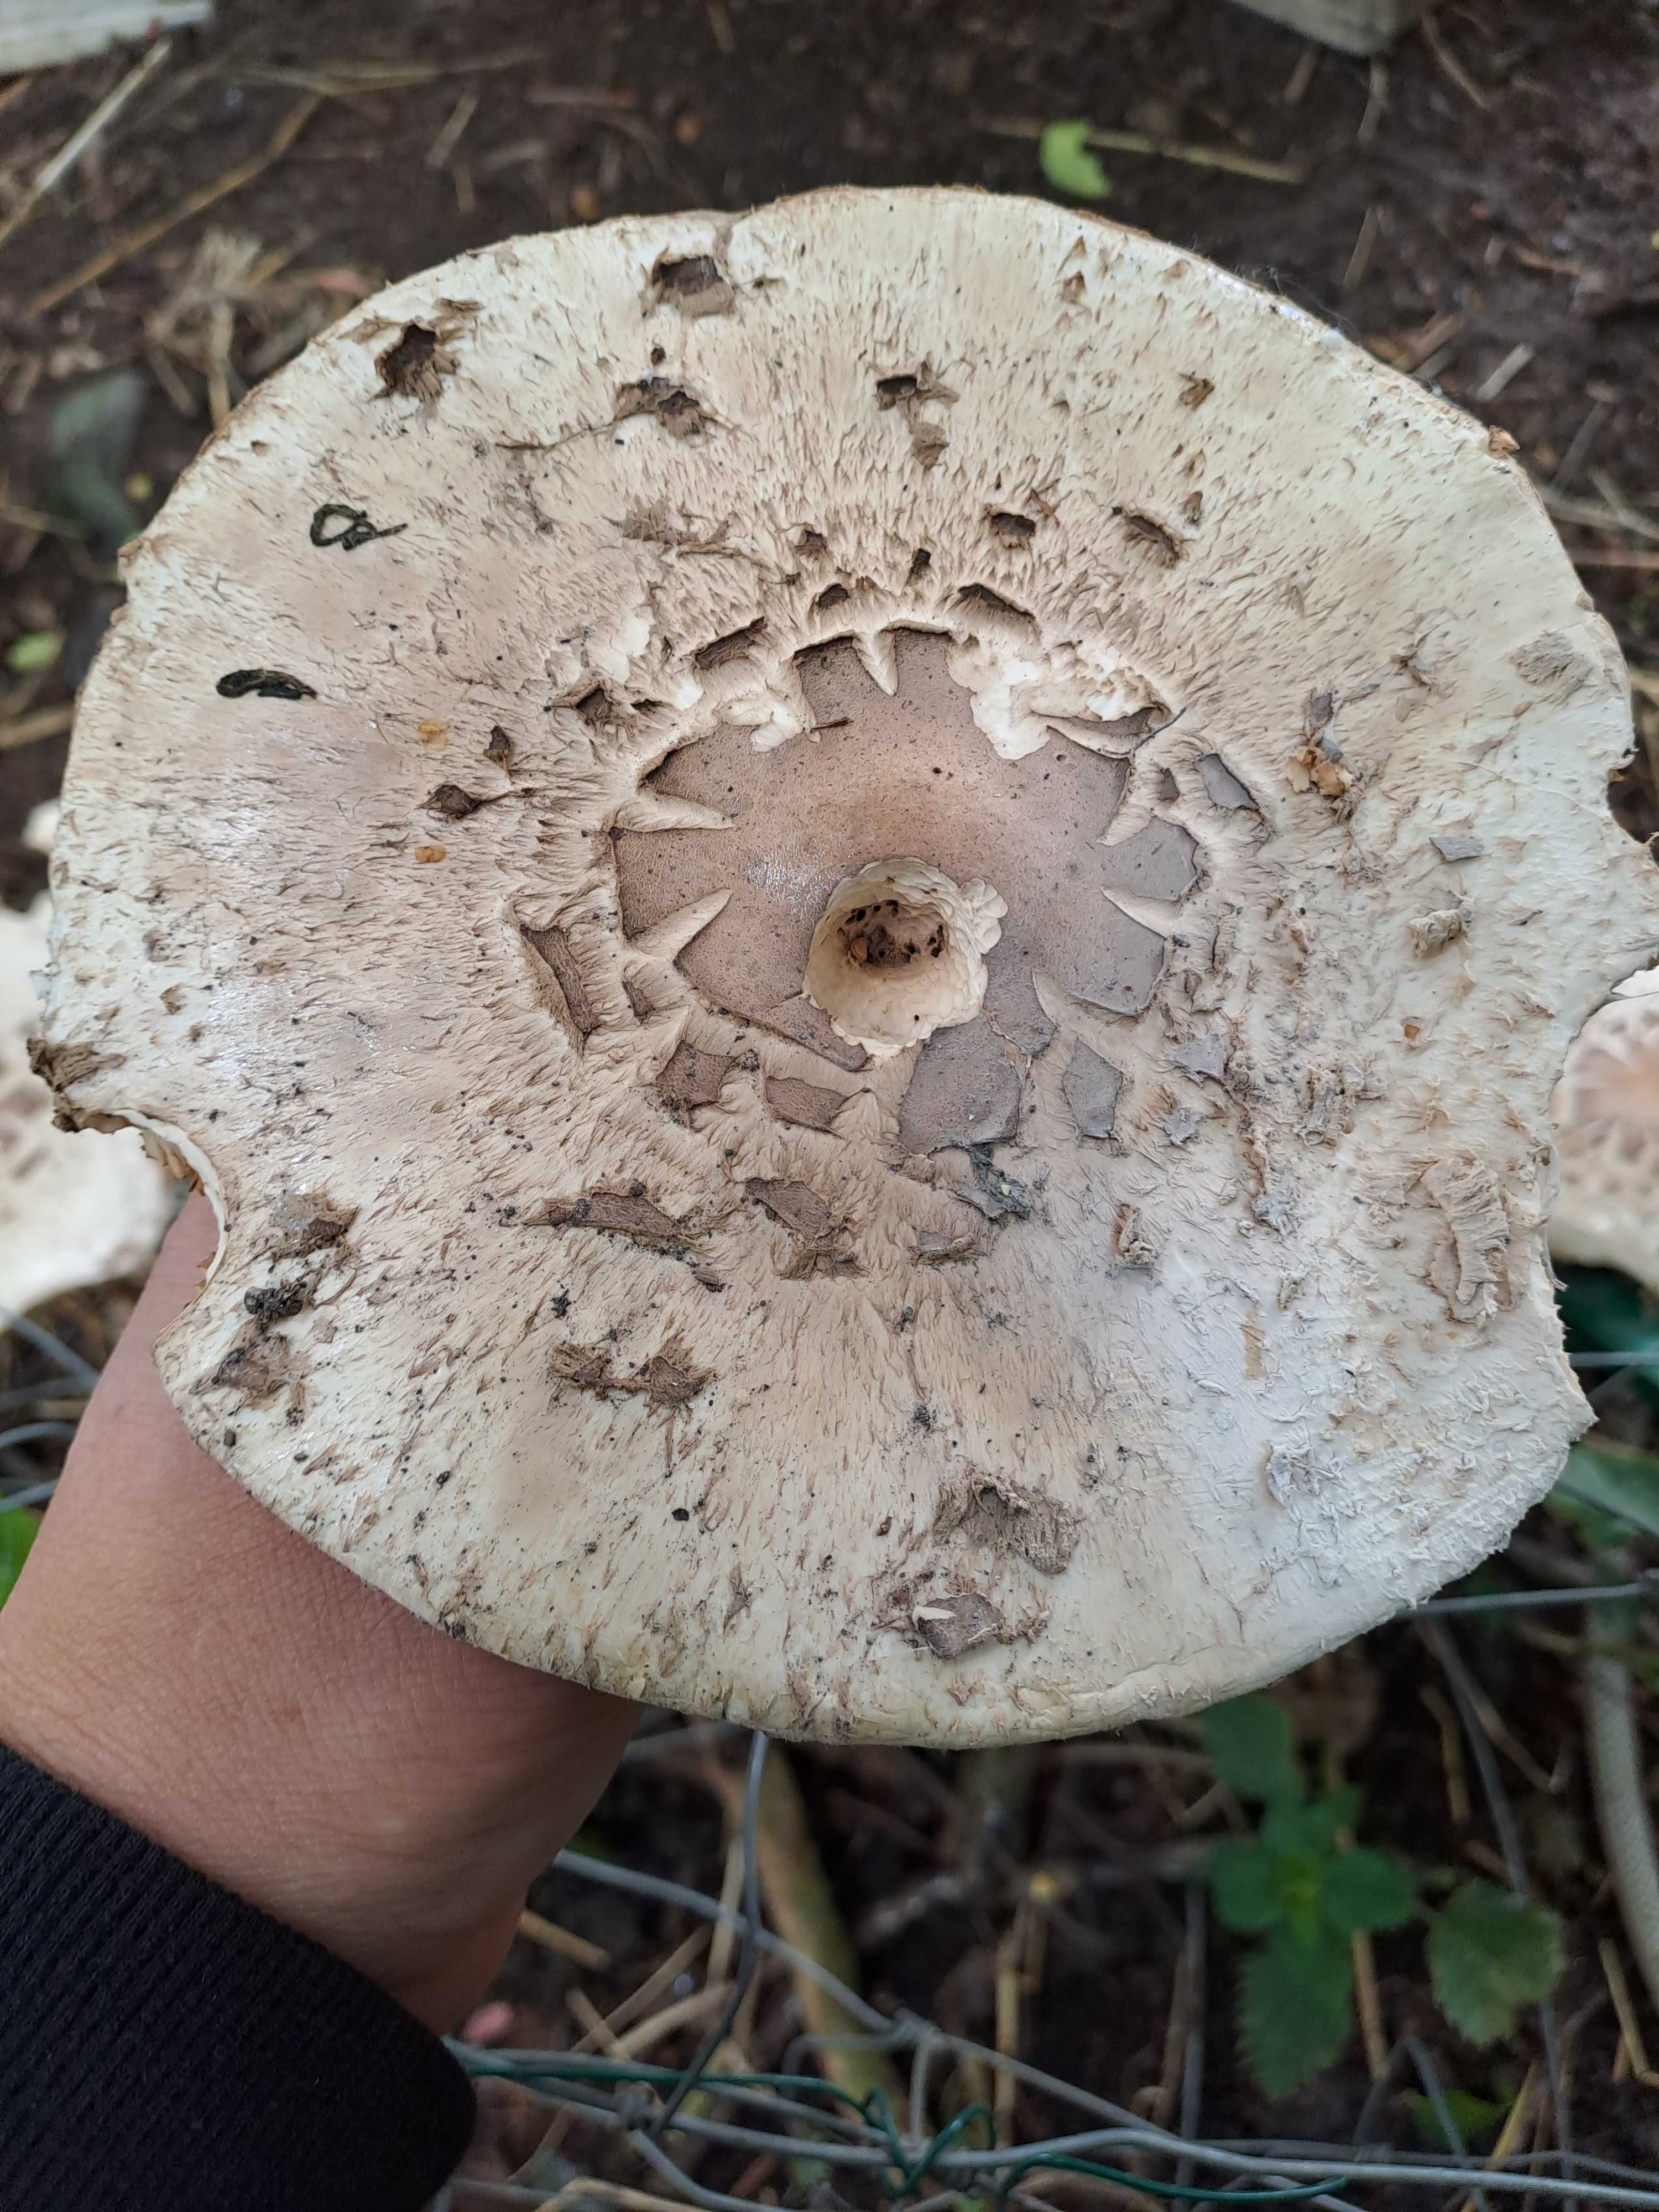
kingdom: Fungi
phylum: Basidiomycota
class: Agaricomycetes
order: Agaricales
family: Agaricaceae
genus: Chlorophyllum
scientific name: Chlorophyllum
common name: rabarberhat
